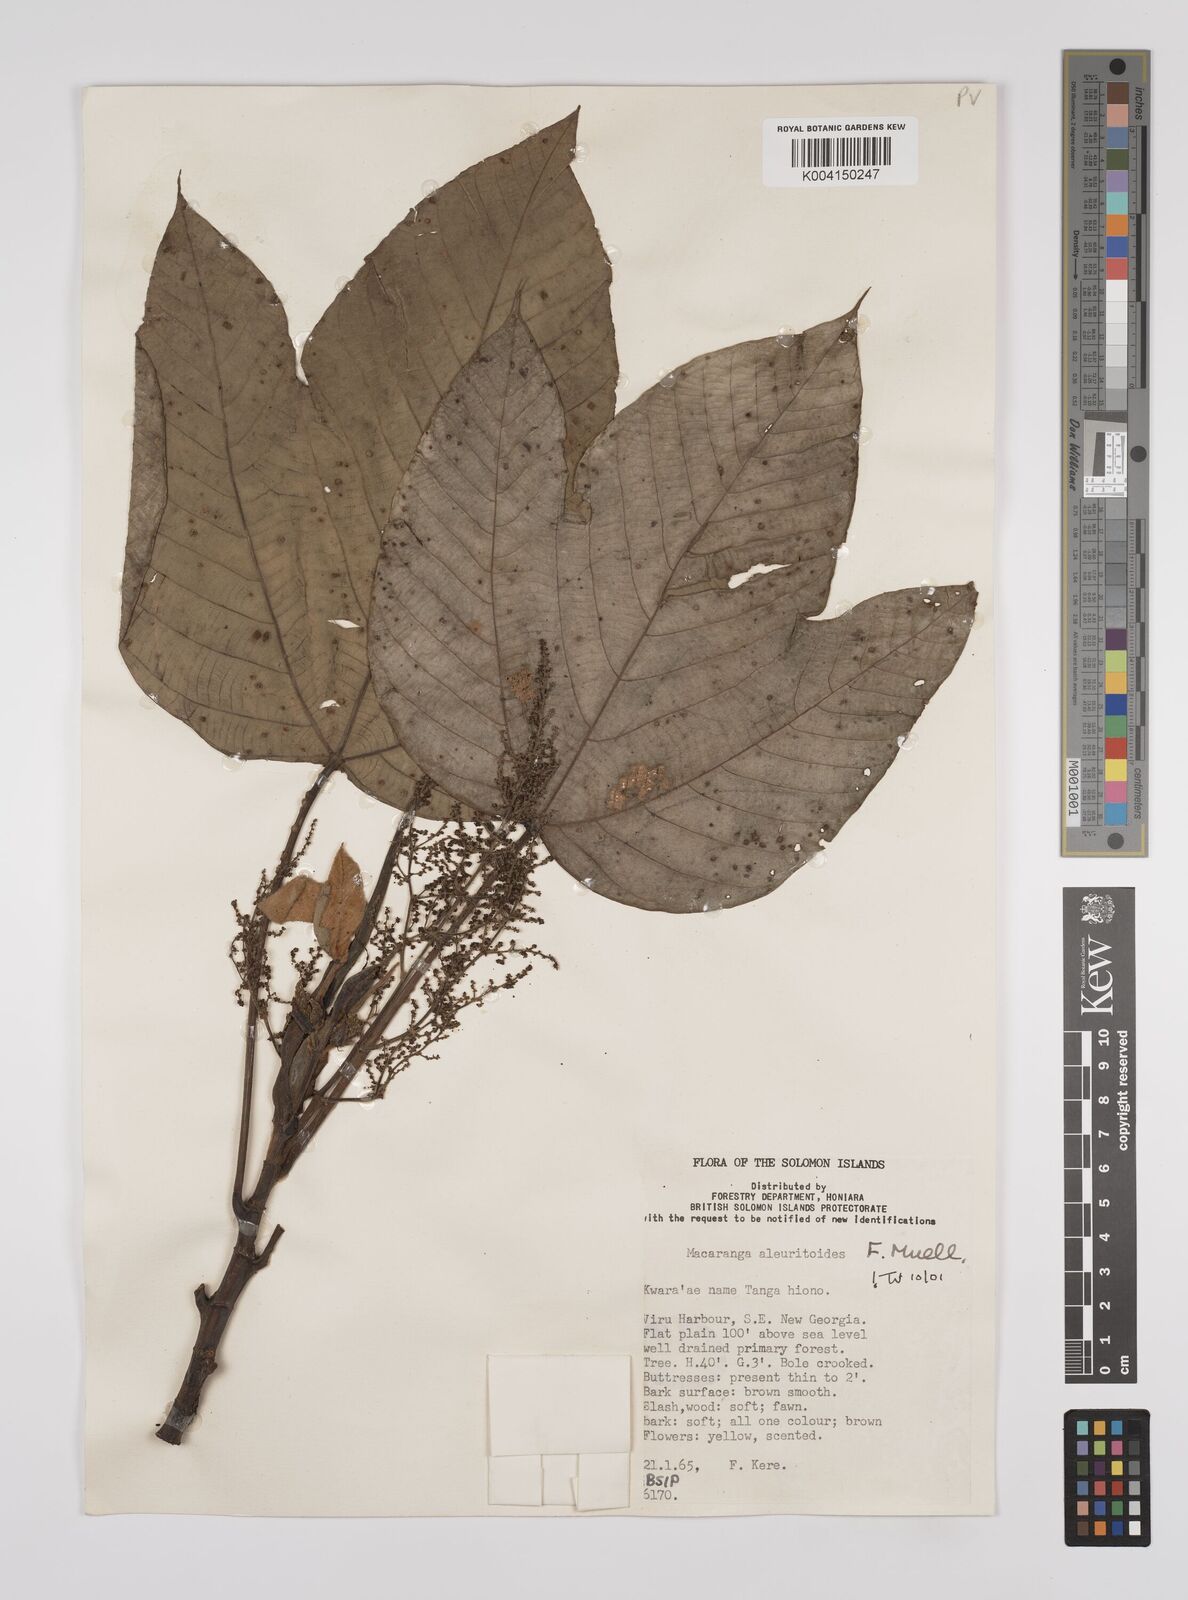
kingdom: Plantae
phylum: Tracheophyta
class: Magnoliopsida
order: Malpighiales
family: Euphorbiaceae
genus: Macaranga
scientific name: Macaranga aleuritoides
